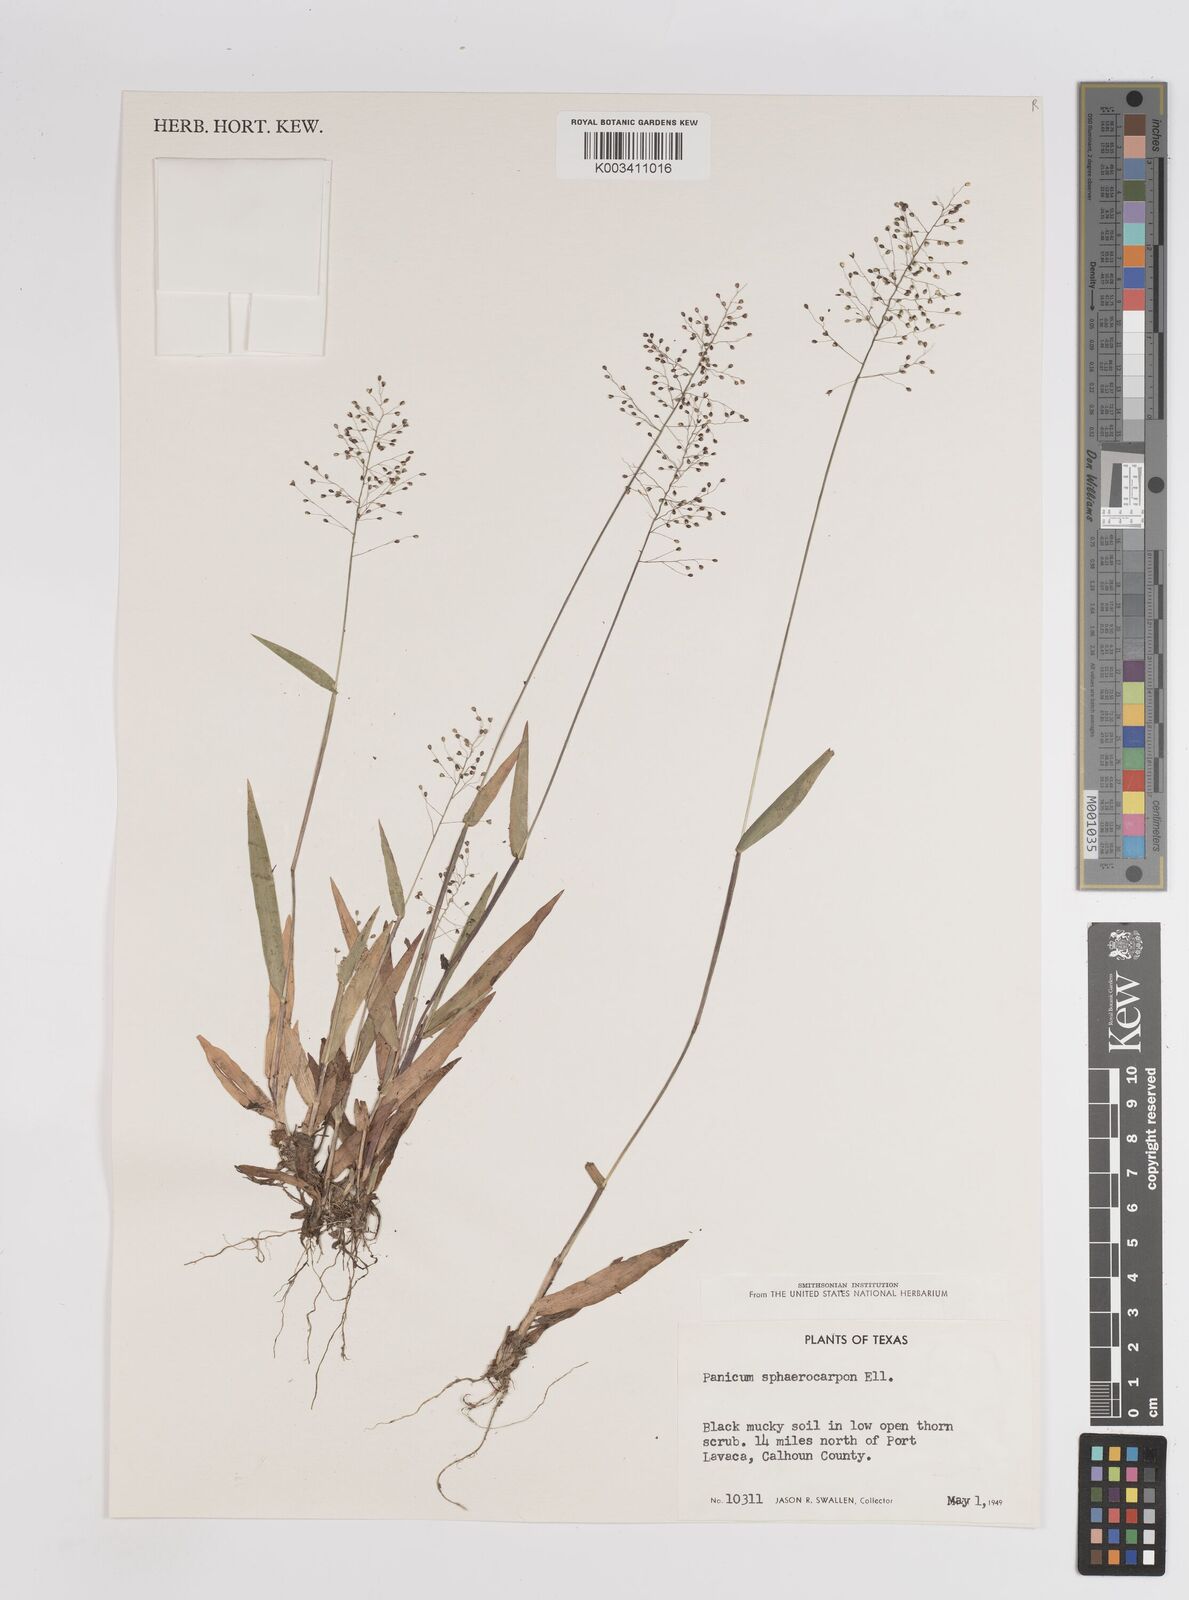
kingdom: Plantae
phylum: Tracheophyta
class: Liliopsida
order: Poales
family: Poaceae
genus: Setaria
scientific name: Setaria tenax
